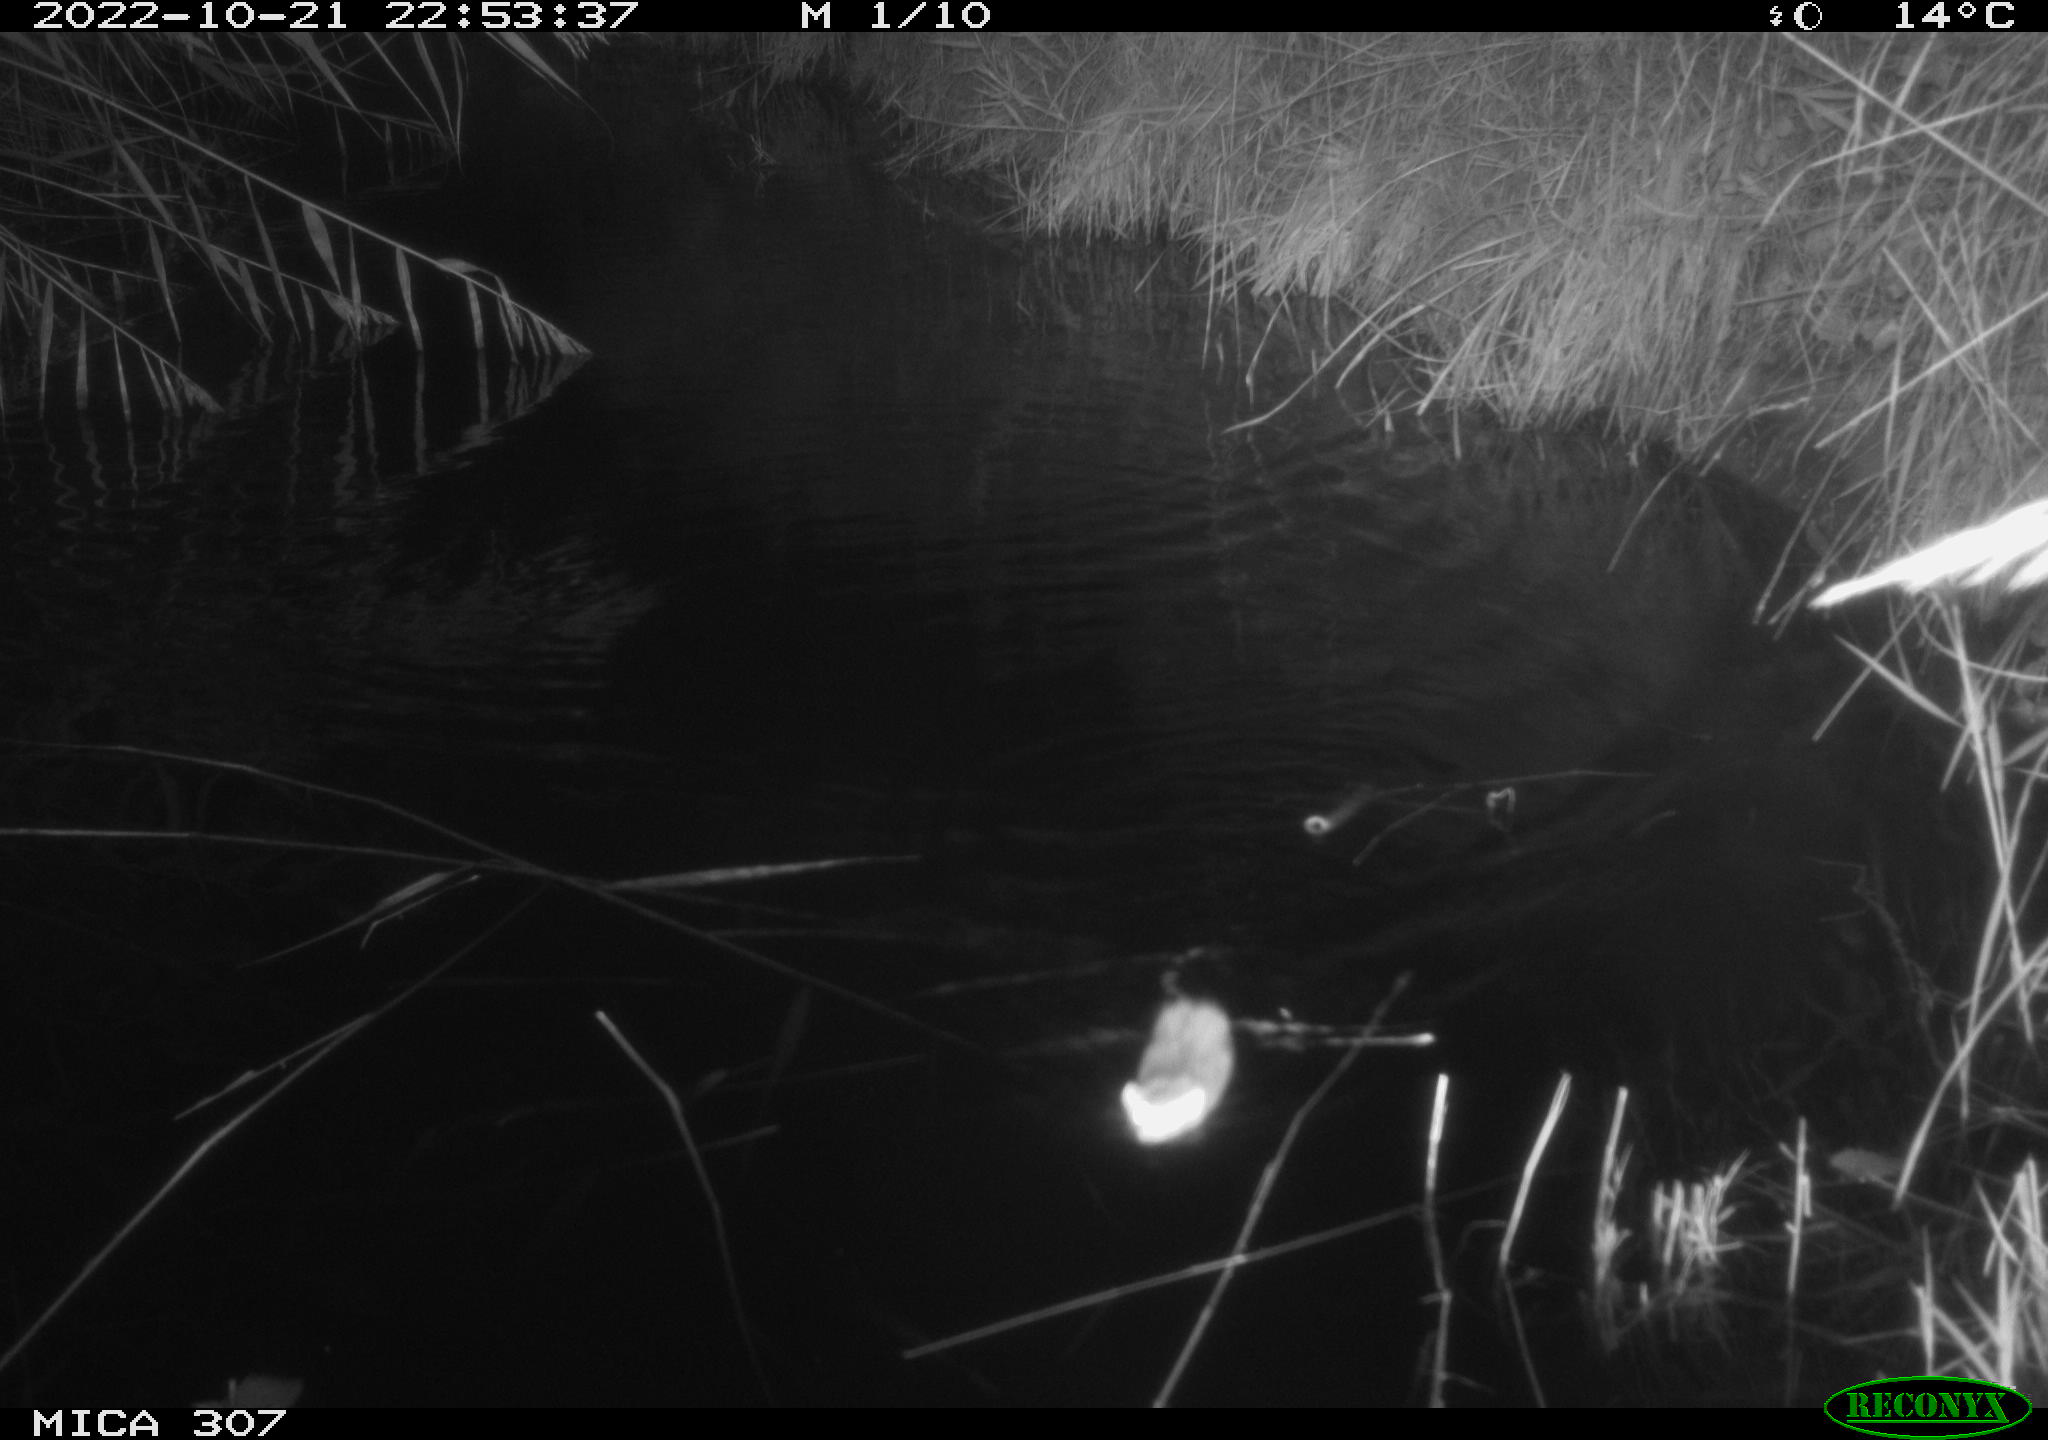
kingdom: Animalia
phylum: Chordata
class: Mammalia
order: Rodentia
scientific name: Rodentia
